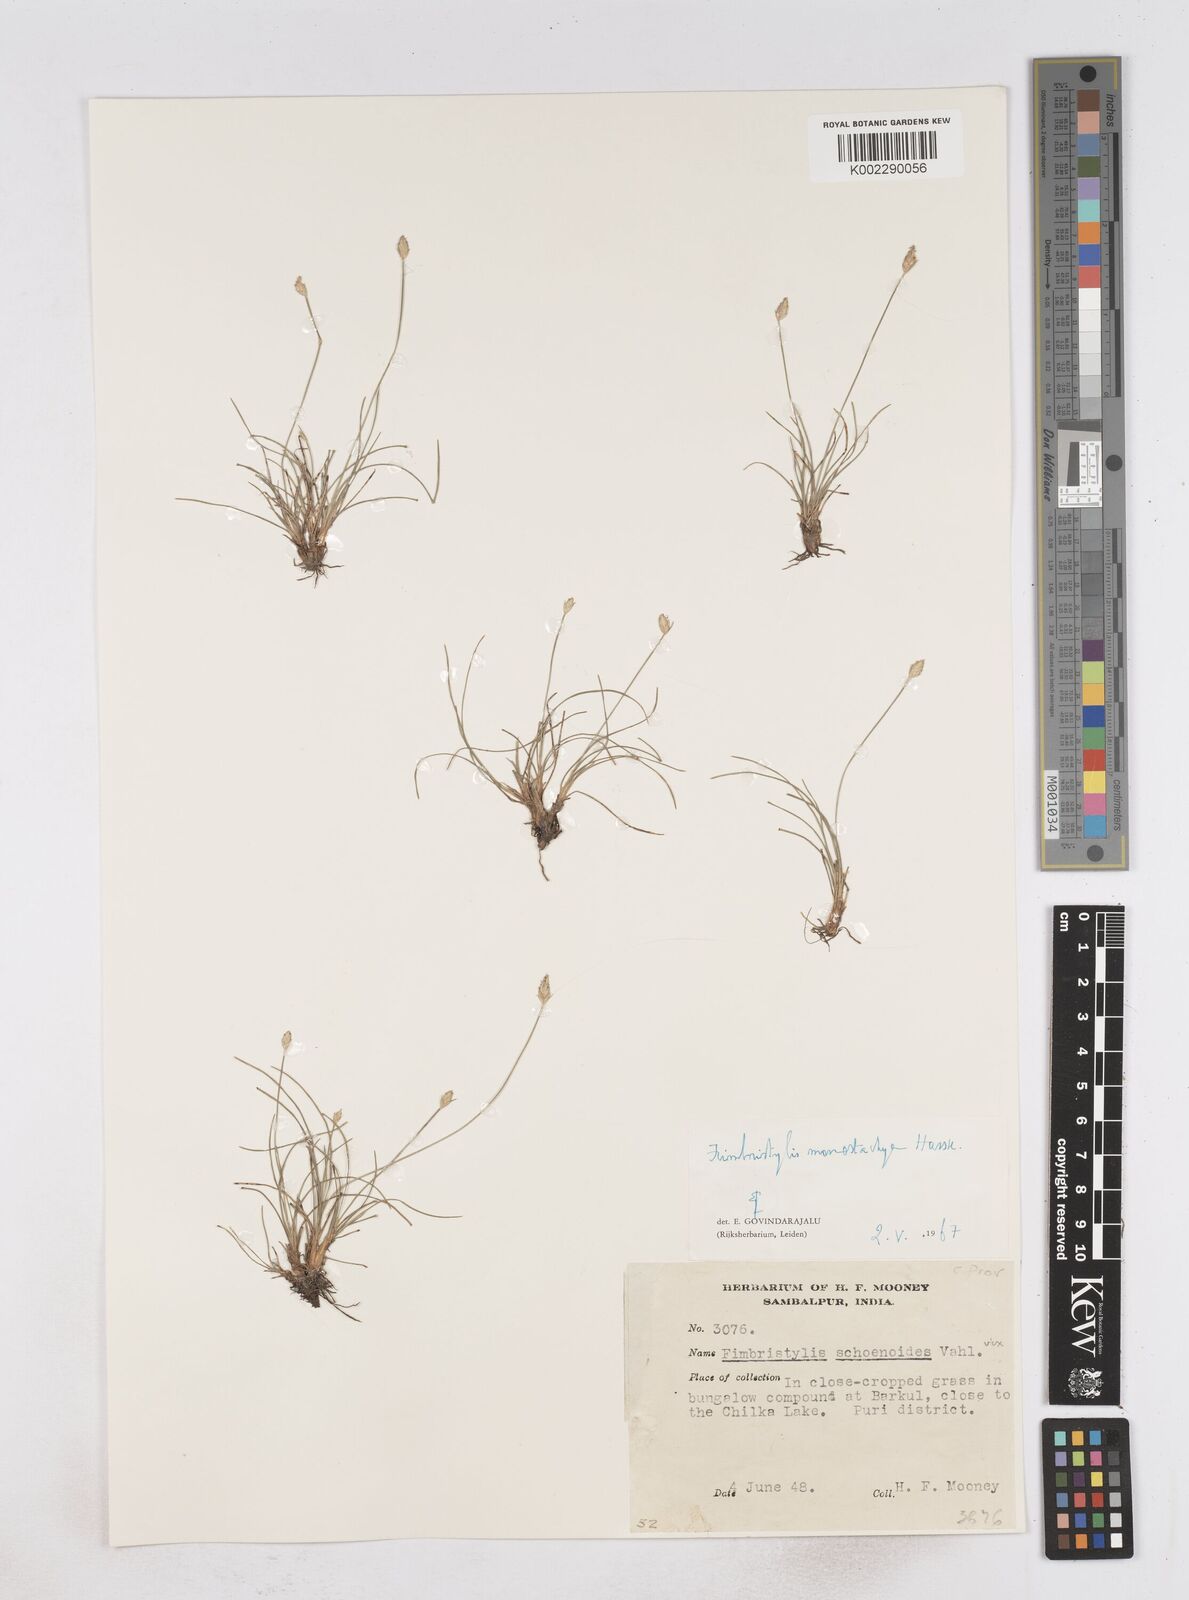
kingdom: Plantae
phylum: Tracheophyta
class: Liliopsida
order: Poales
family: Cyperaceae
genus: Abildgaardia
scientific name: Abildgaardia ovata
